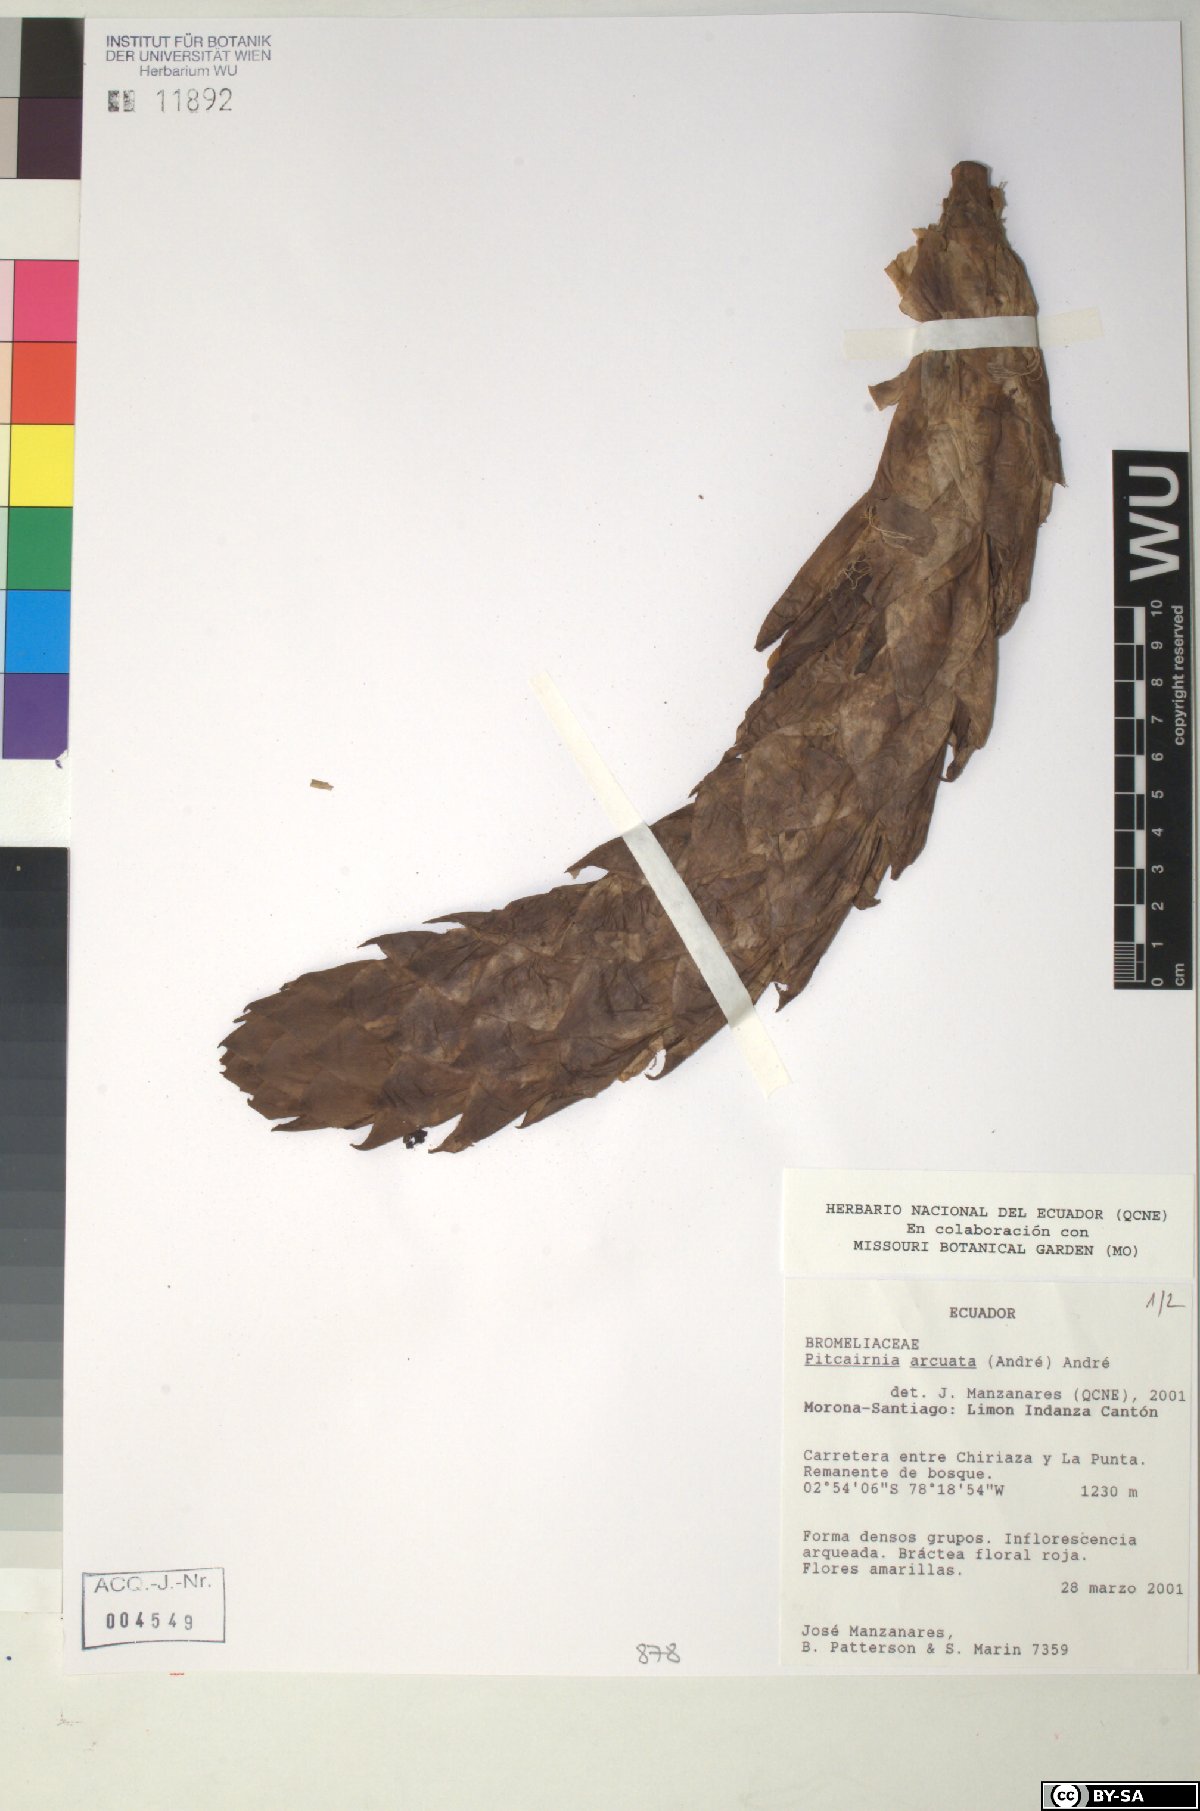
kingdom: Plantae
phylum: Tracheophyta
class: Liliopsida
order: Poales
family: Bromeliaceae
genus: Pitcairnia
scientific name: Pitcairnia arcuata
